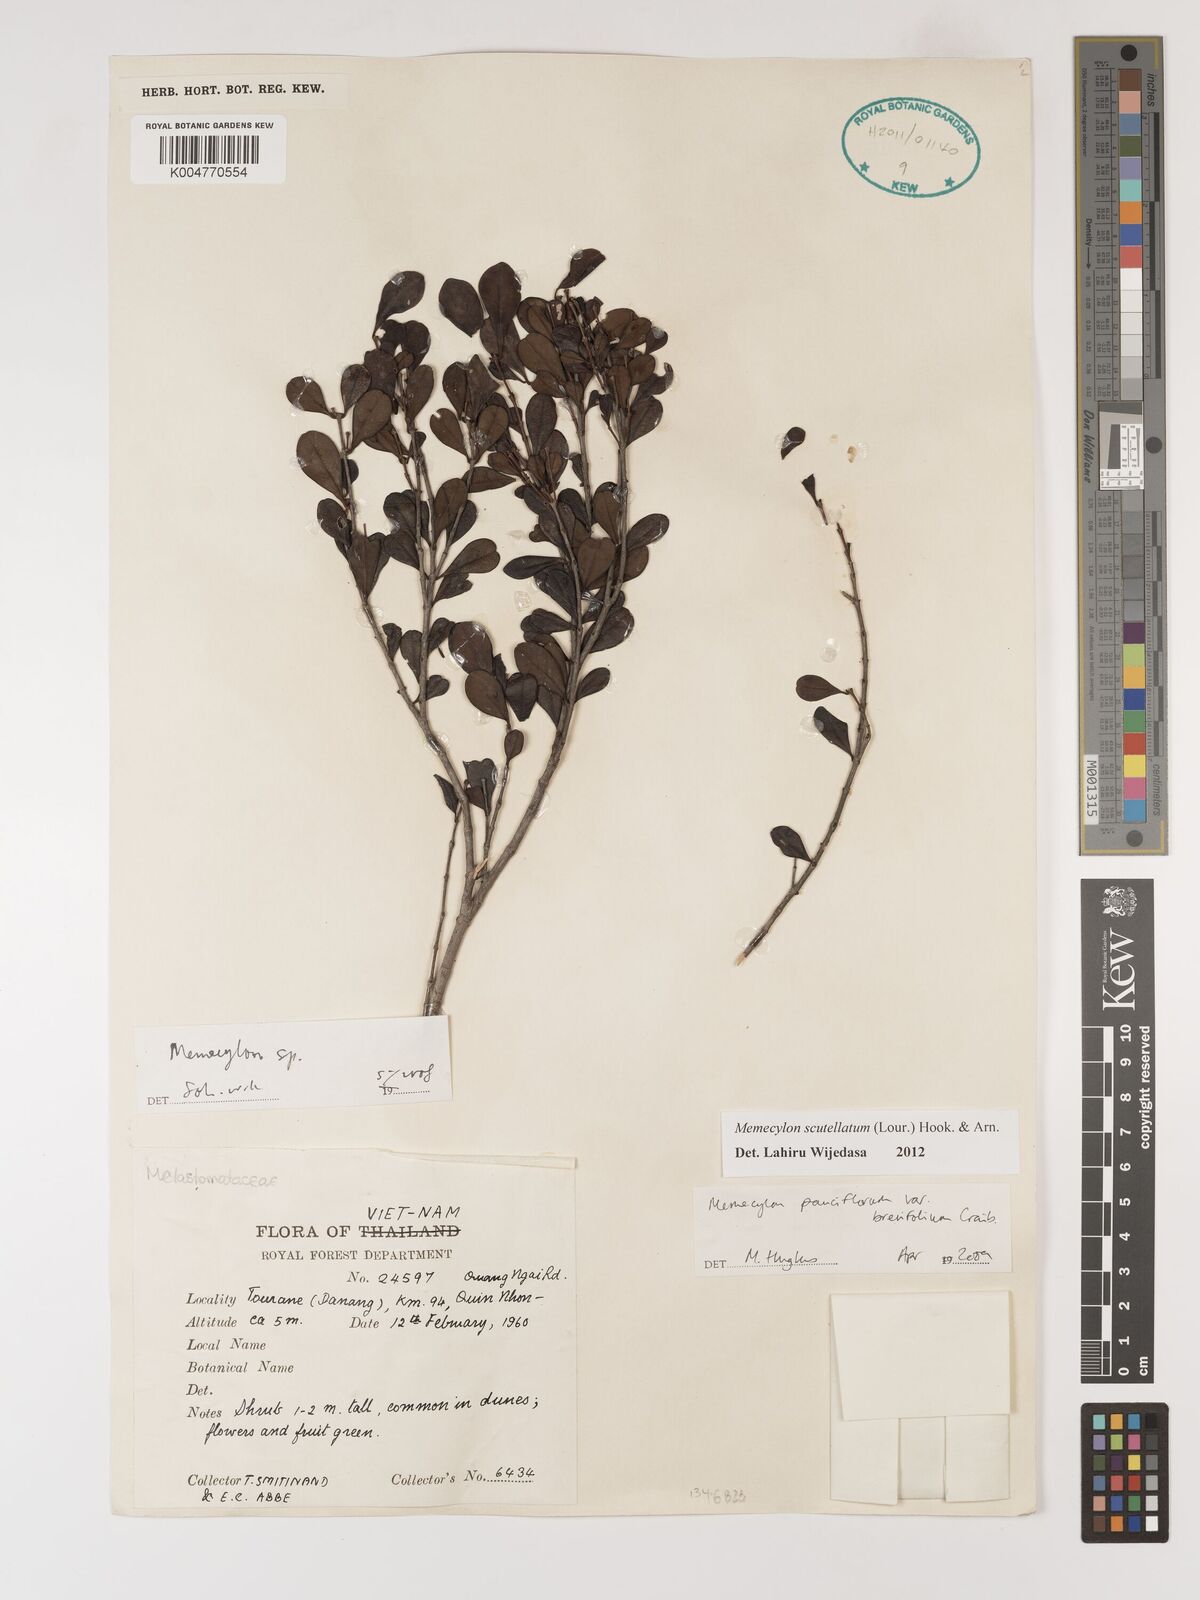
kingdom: Plantae
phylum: Tracheophyta
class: Magnoliopsida
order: Myrtales
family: Melastomataceae
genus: Memecylon
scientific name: Memecylon scutellatum
